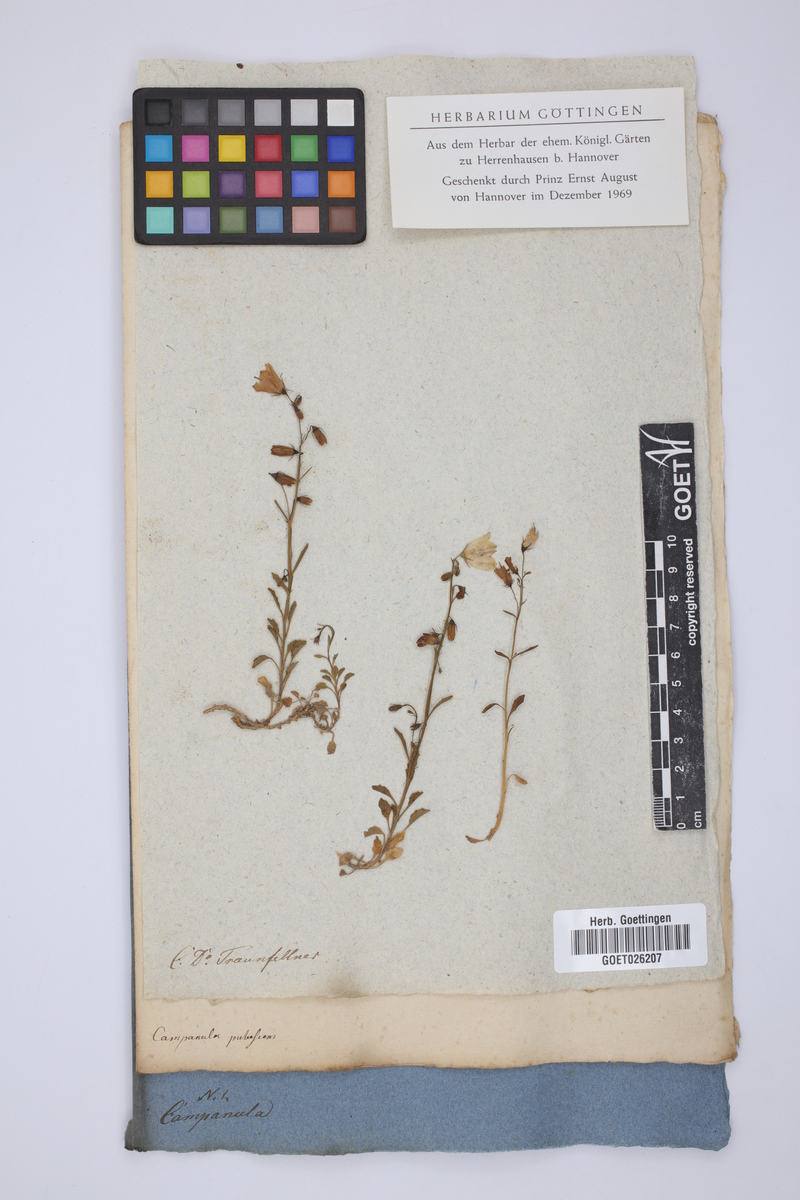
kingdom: Plantae
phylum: Tracheophyta
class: Magnoliopsida
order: Asterales
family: Campanulaceae
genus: Campanula
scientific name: Campanula
